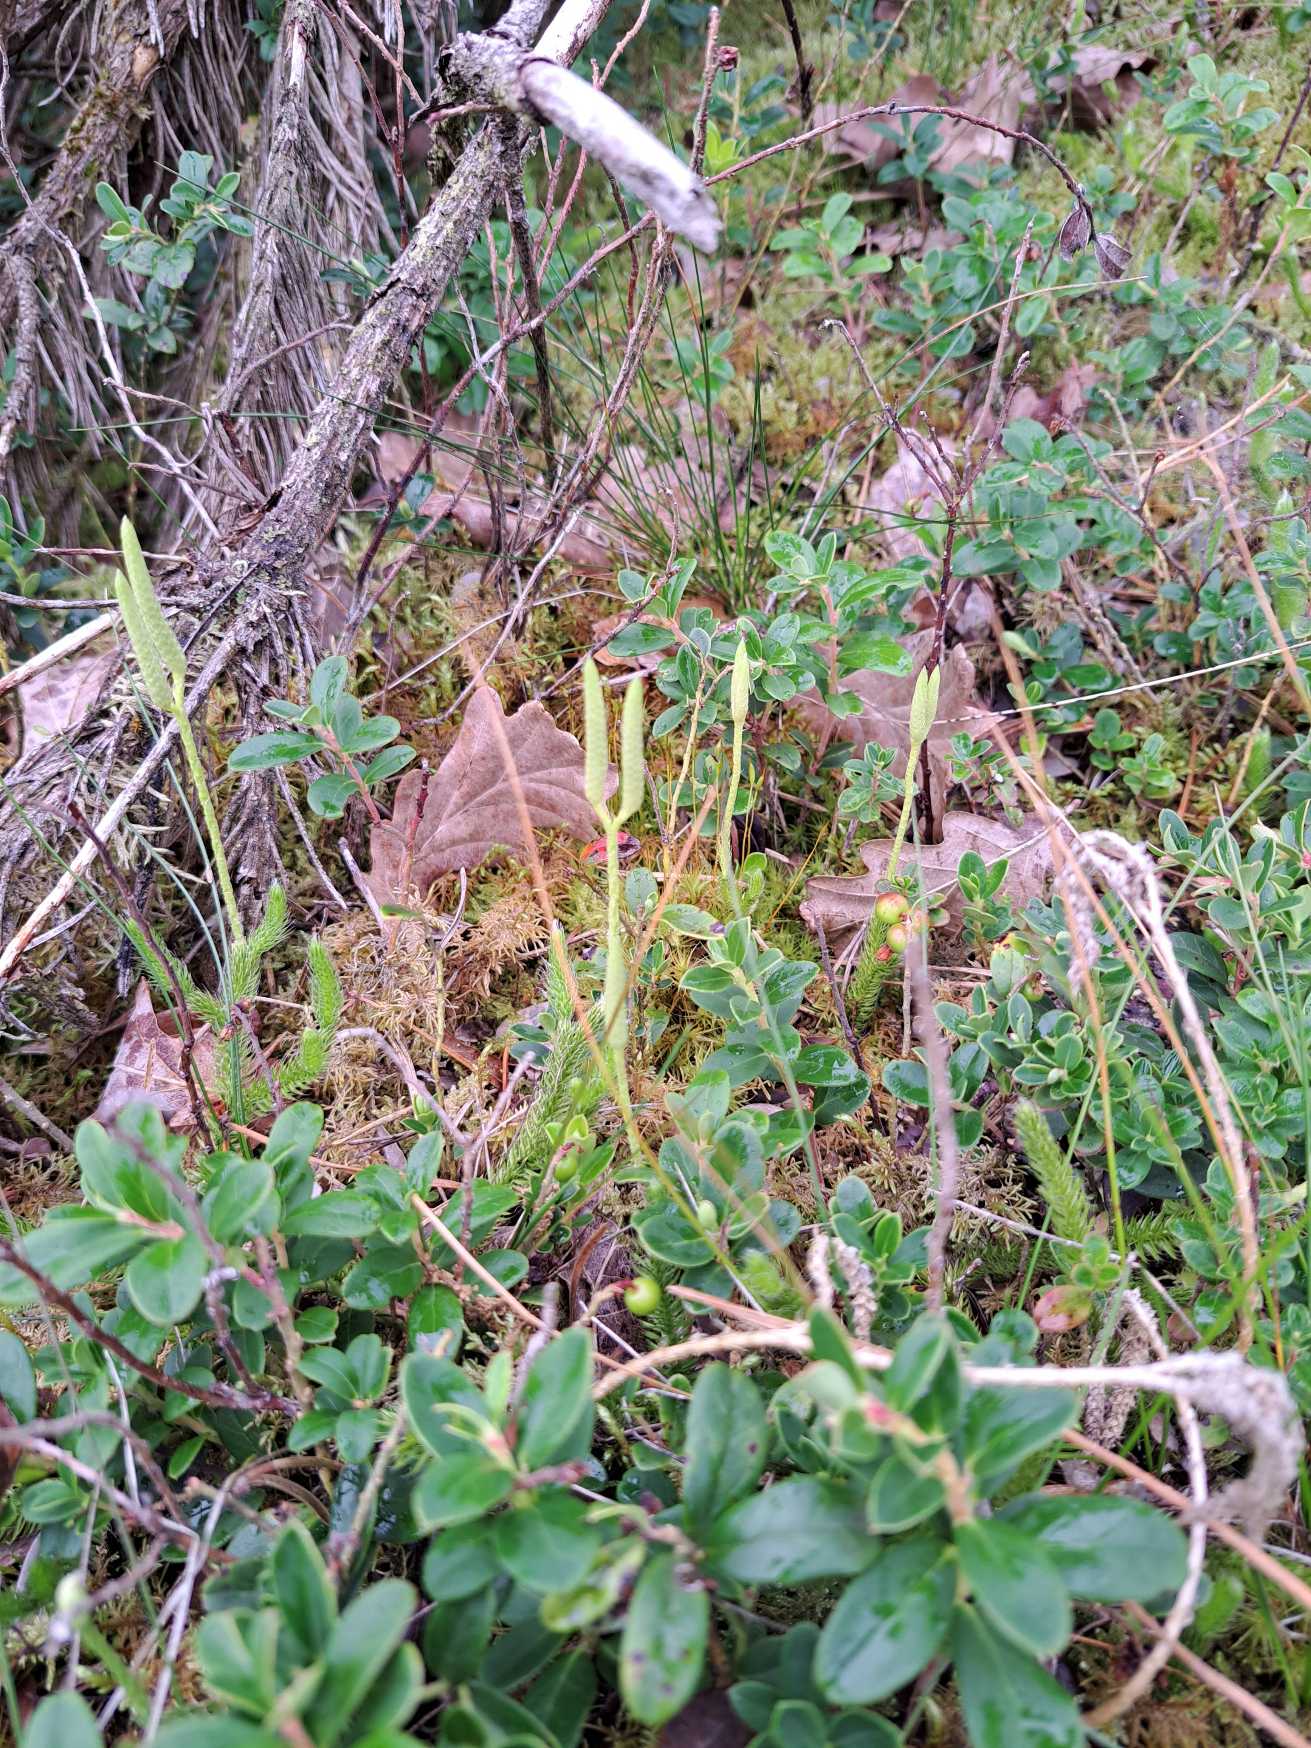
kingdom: Plantae
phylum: Tracheophyta
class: Lycopodiopsida
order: Lycopodiales
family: Lycopodiaceae
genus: Lycopodium
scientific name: Lycopodium clavatum
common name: Almindelig ulvefod
